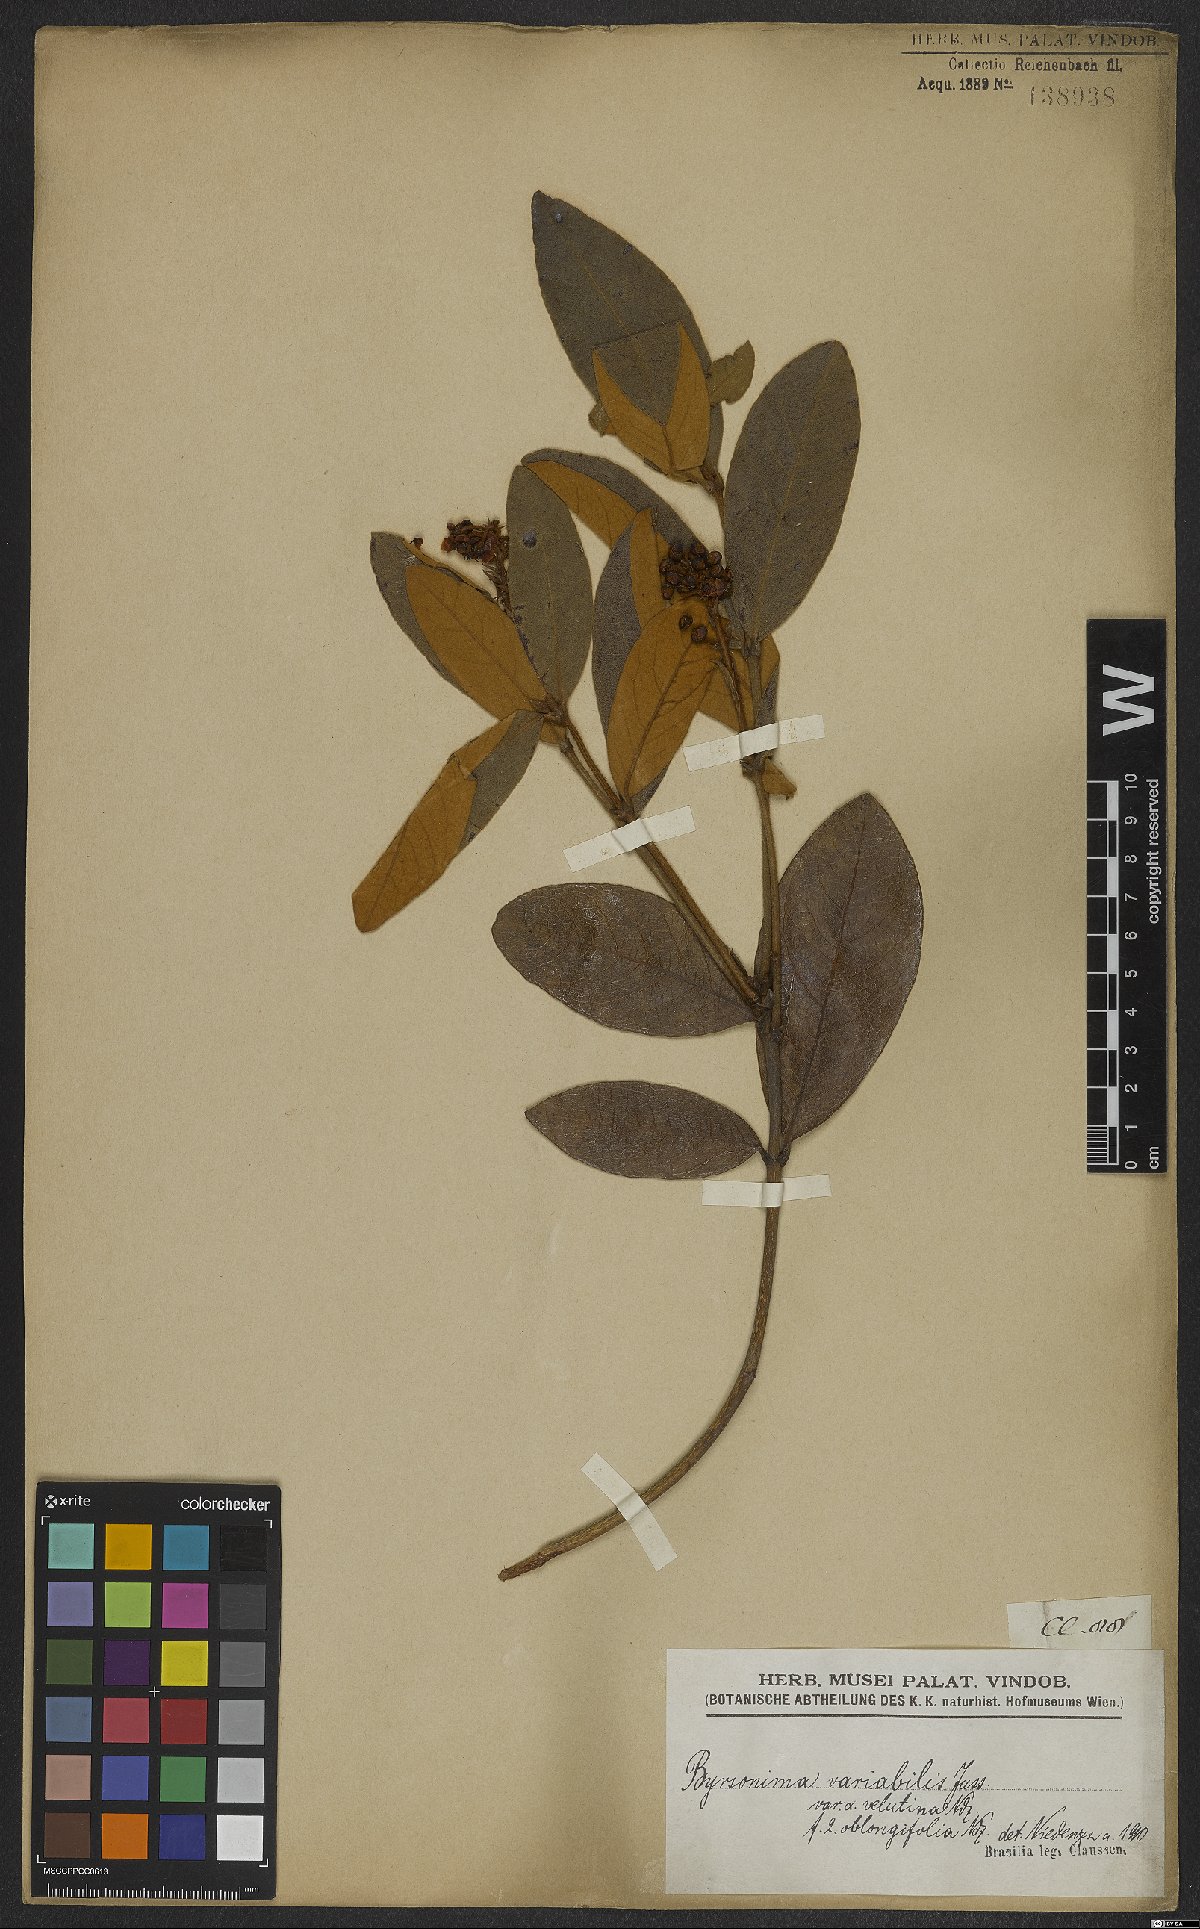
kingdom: Plantae
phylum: Tracheophyta
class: Magnoliopsida
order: Malpighiales
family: Malpighiaceae
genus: Byrsonima
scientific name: Byrsonima variabilis
